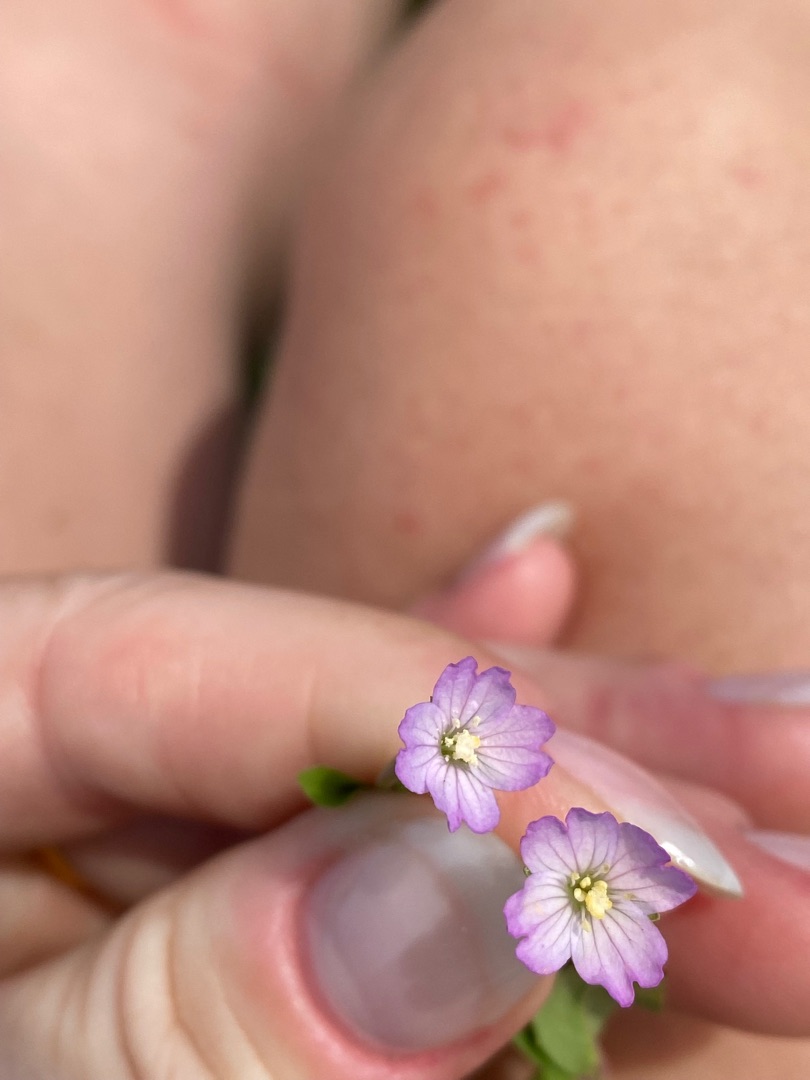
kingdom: Plantae
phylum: Tracheophyta
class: Magnoliopsida
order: Myrtales
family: Onagraceae
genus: Epilobium
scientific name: Epilobium montanum
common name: Glat dueurt
